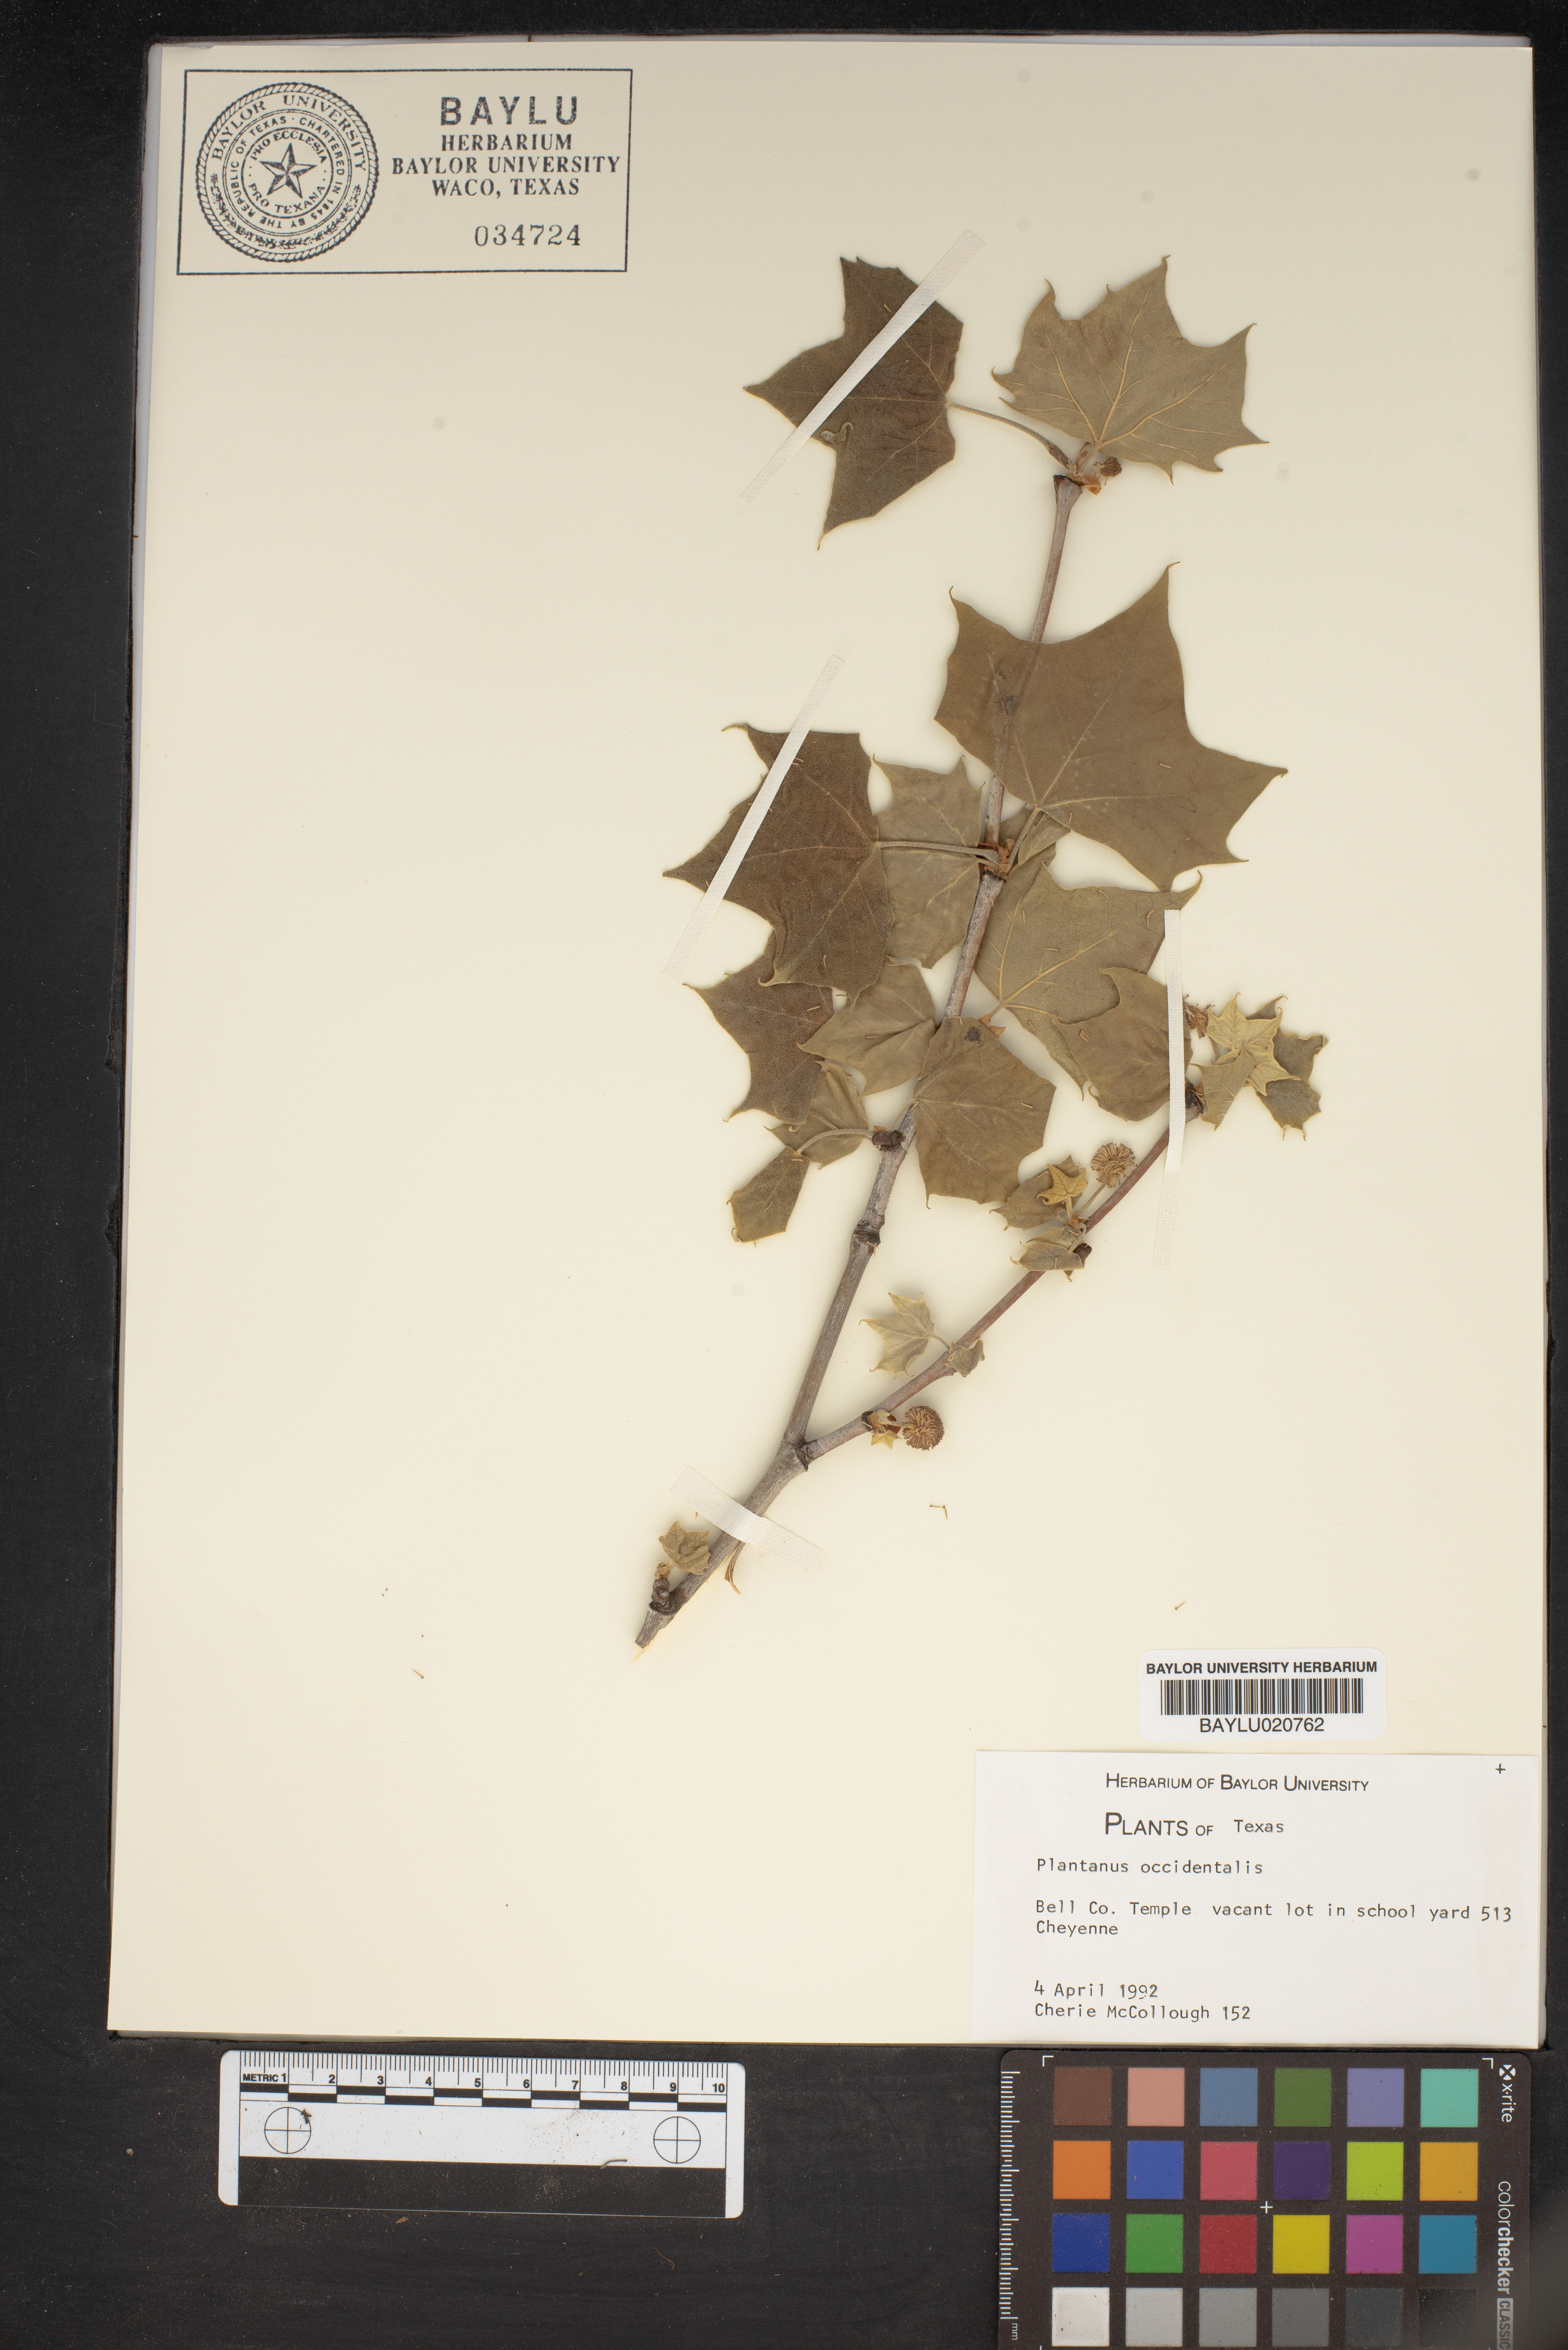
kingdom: Plantae
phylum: Tracheophyta
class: Magnoliopsida
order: Proteales
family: Platanaceae
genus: Platanus
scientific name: Platanus occidentalis
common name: American sycamore
